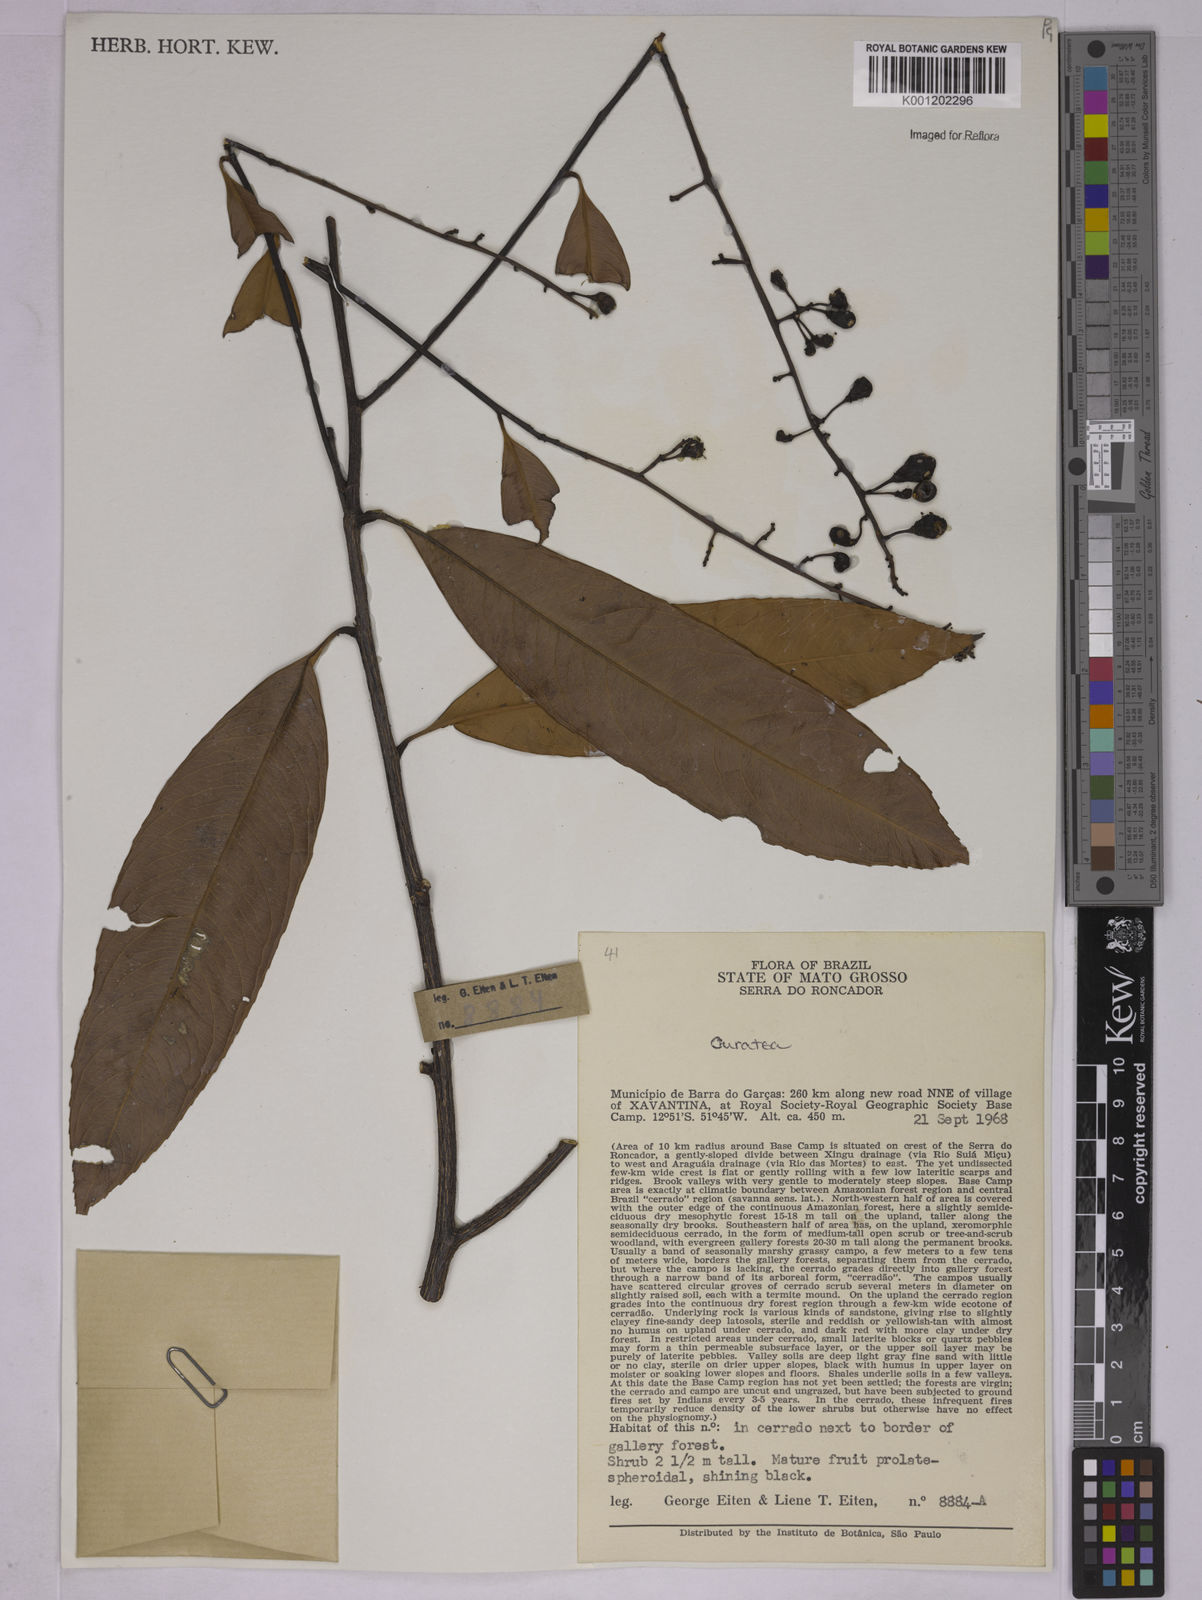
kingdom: Plantae
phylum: Tracheophyta
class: Magnoliopsida
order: Malpighiales
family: Ochnaceae
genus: Ouratea
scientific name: Ouratea
